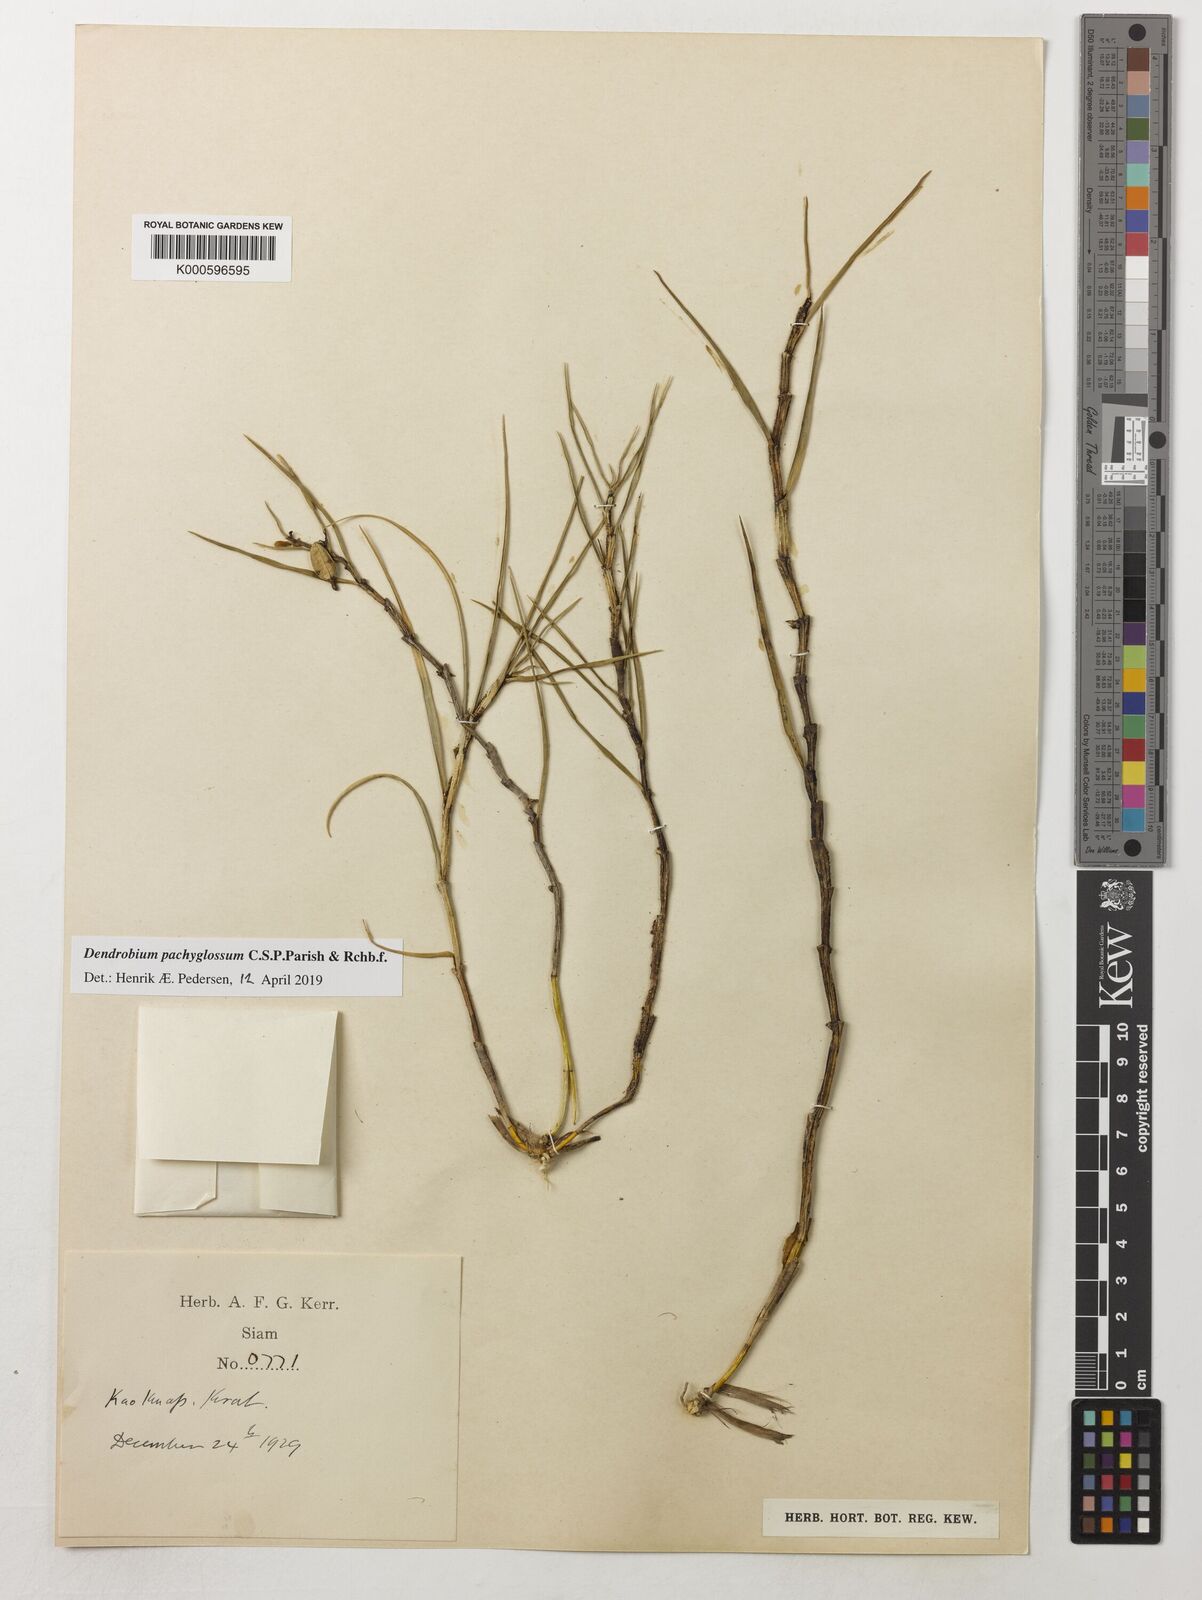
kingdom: Plantae
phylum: Tracheophyta
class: Liliopsida
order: Asparagales
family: Orchidaceae
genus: Dendrobium
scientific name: Dendrobium pachyglossum
